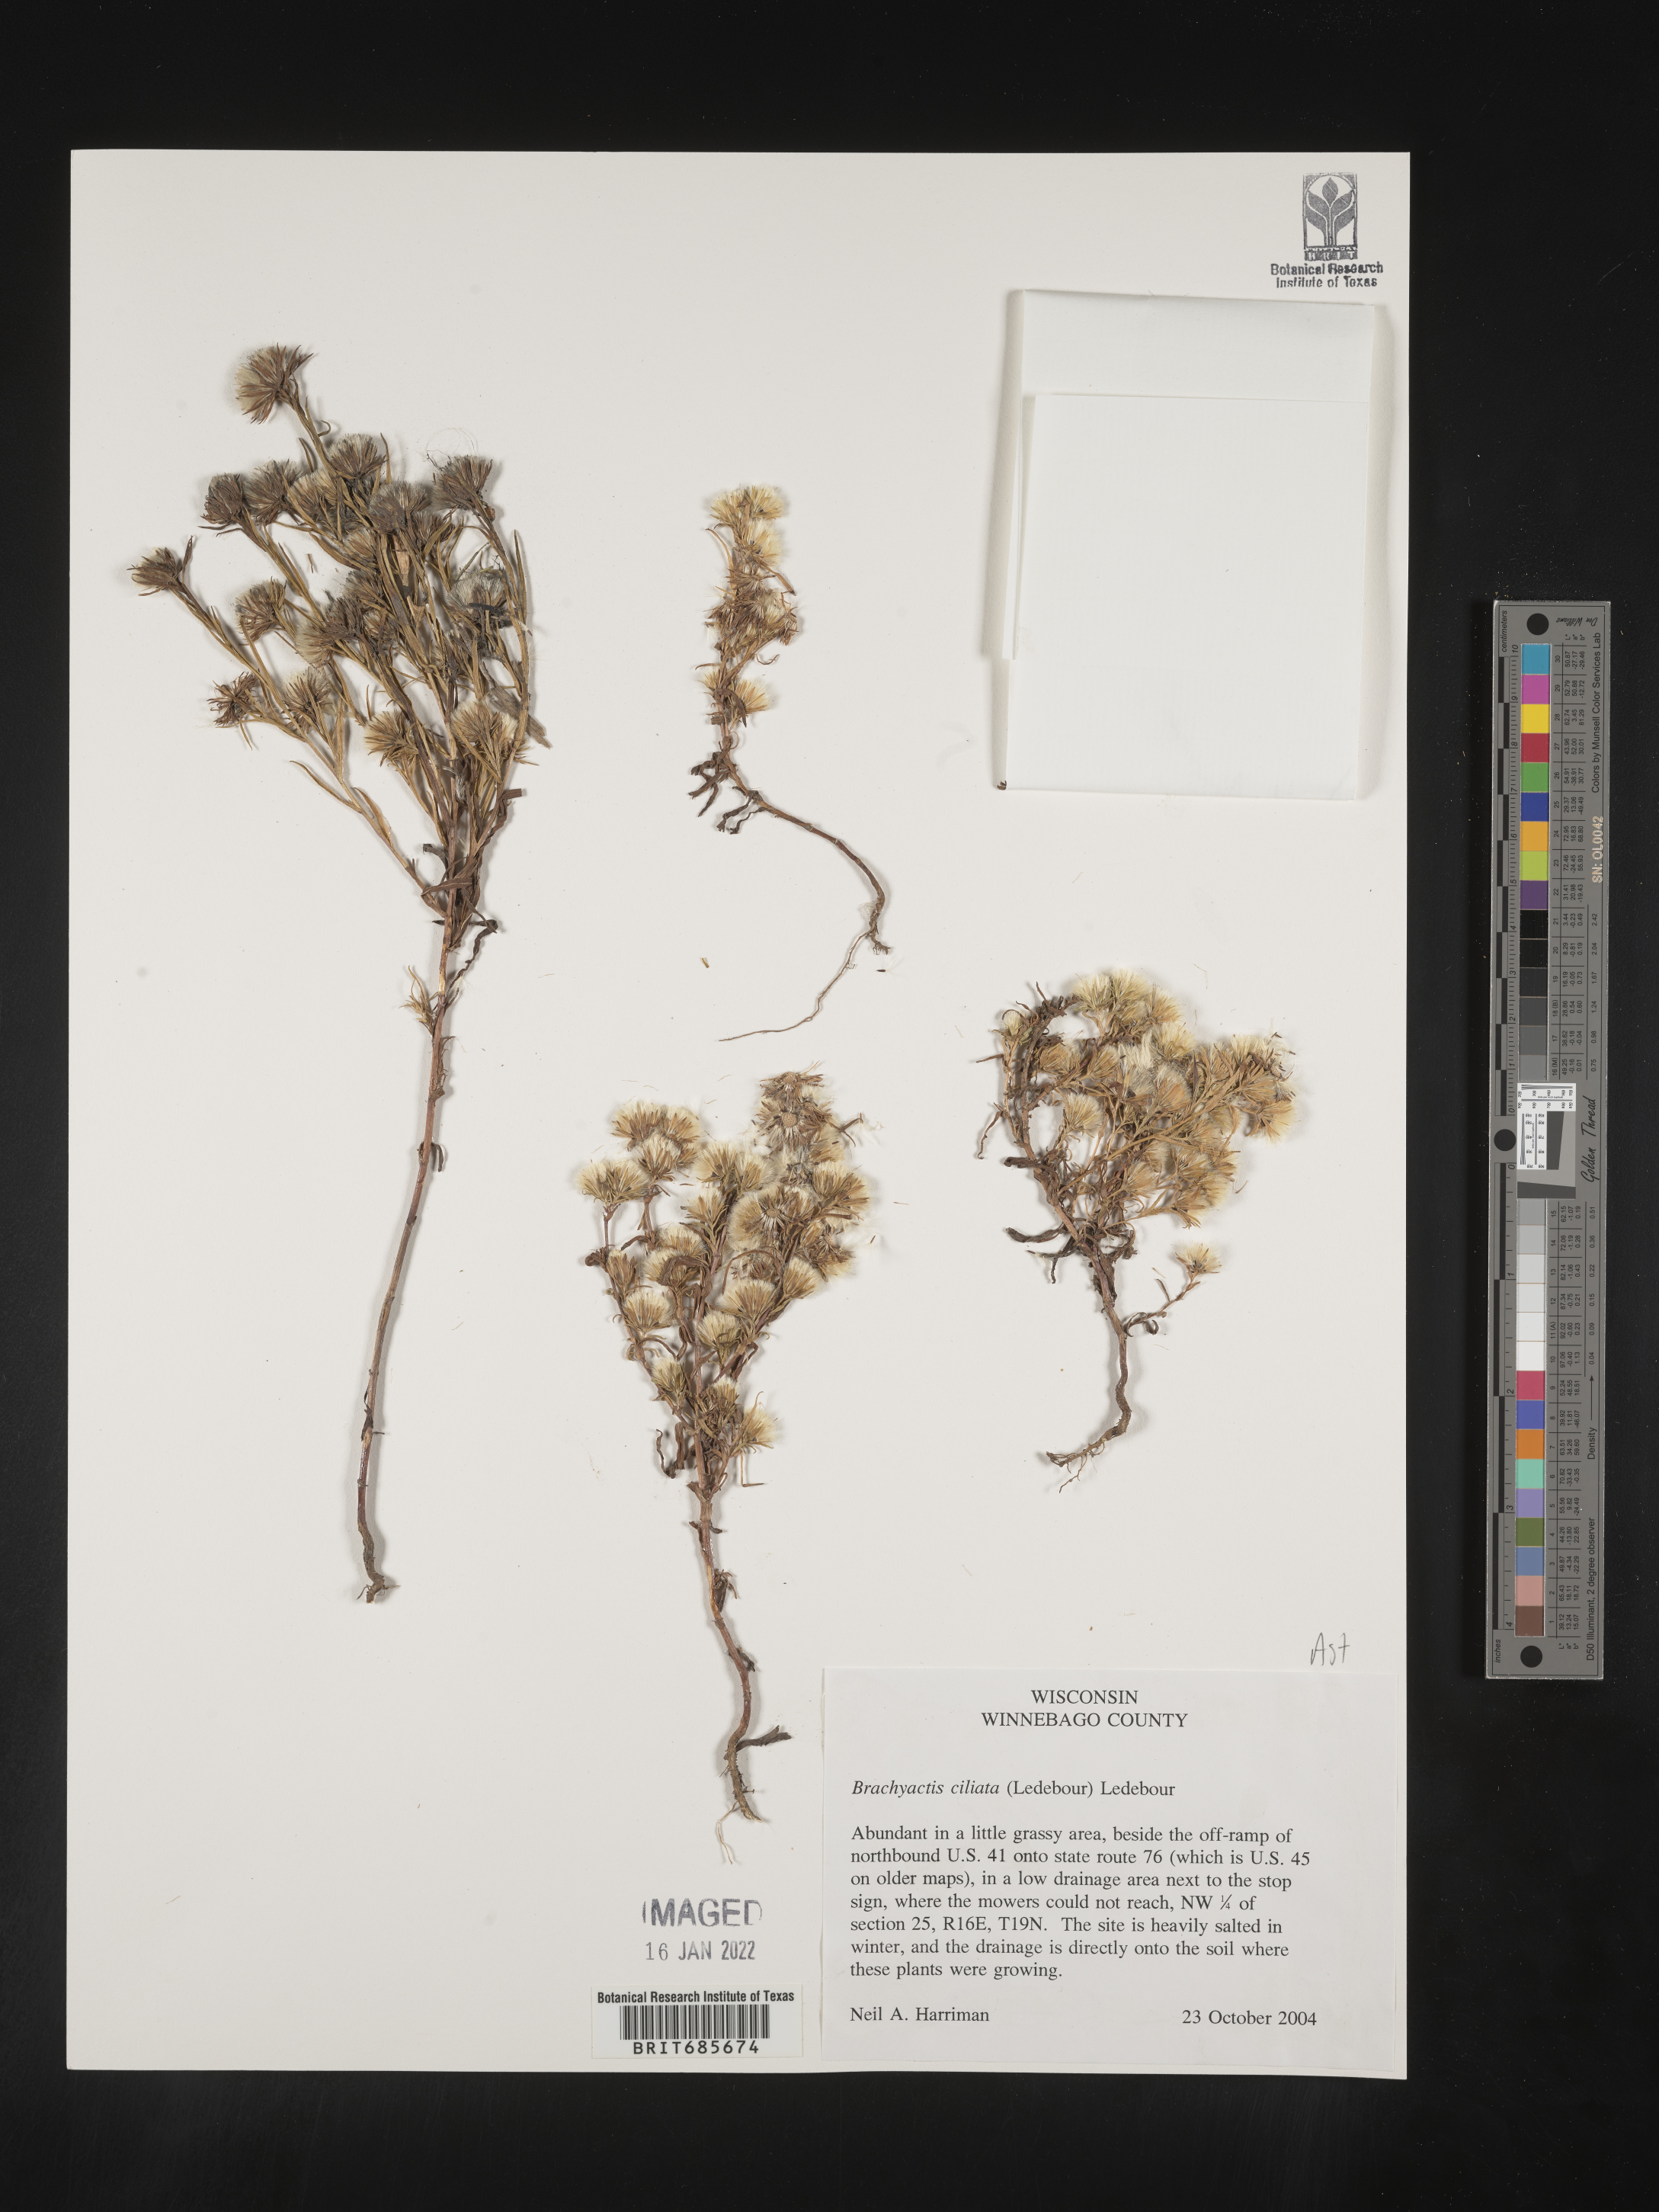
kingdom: Plantae
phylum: Tracheophyta
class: Magnoliopsida
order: Asterales
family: Asteraceae
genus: Symphyotrichum
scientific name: Symphyotrichum ciliatum
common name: Rayless annual aster
